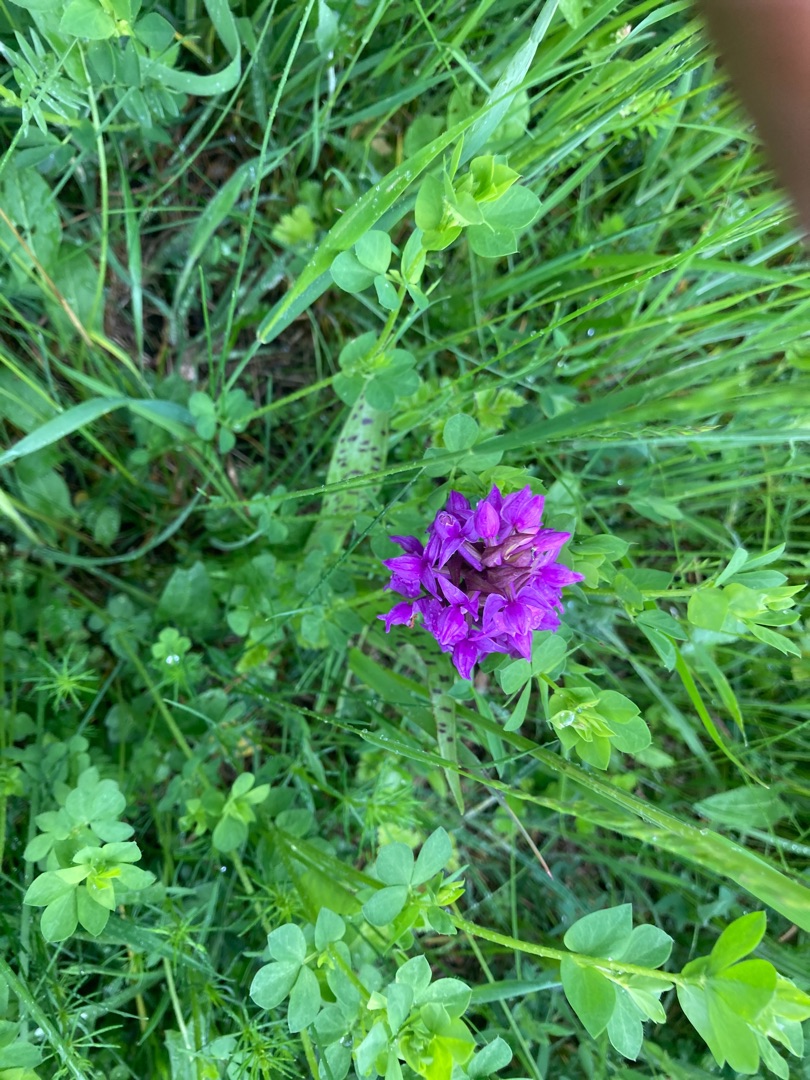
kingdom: Plantae
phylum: Tracheophyta
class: Liliopsida
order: Asparagales
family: Orchidaceae
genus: Dactylorhiza
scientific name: Dactylorhiza majalis
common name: Maj-gøgeurt
